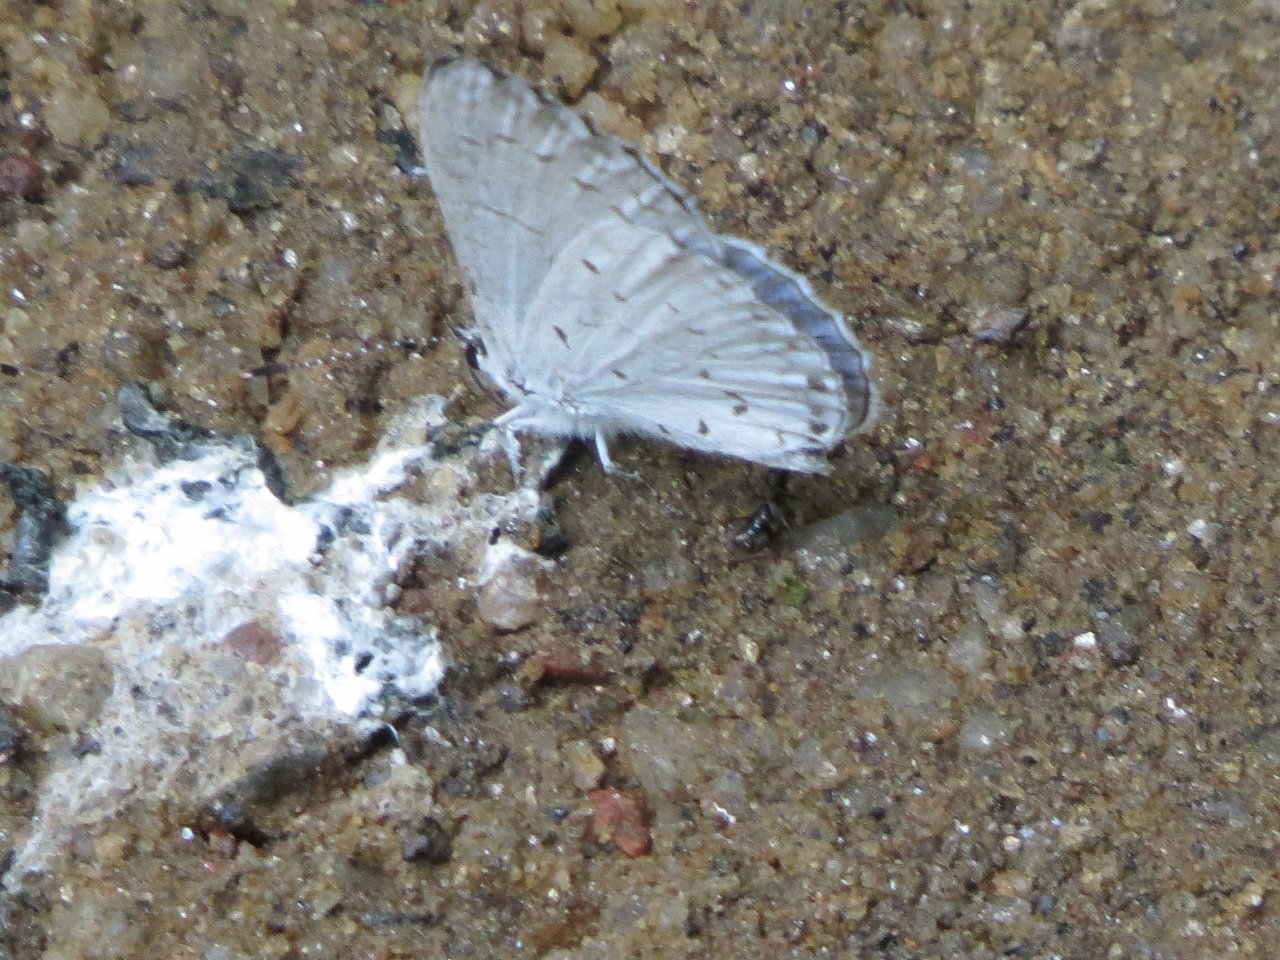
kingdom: Animalia
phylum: Arthropoda
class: Insecta
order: Lepidoptera
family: Lycaenidae
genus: Cyaniris
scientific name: Cyaniris neglecta
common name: Summer Azure
